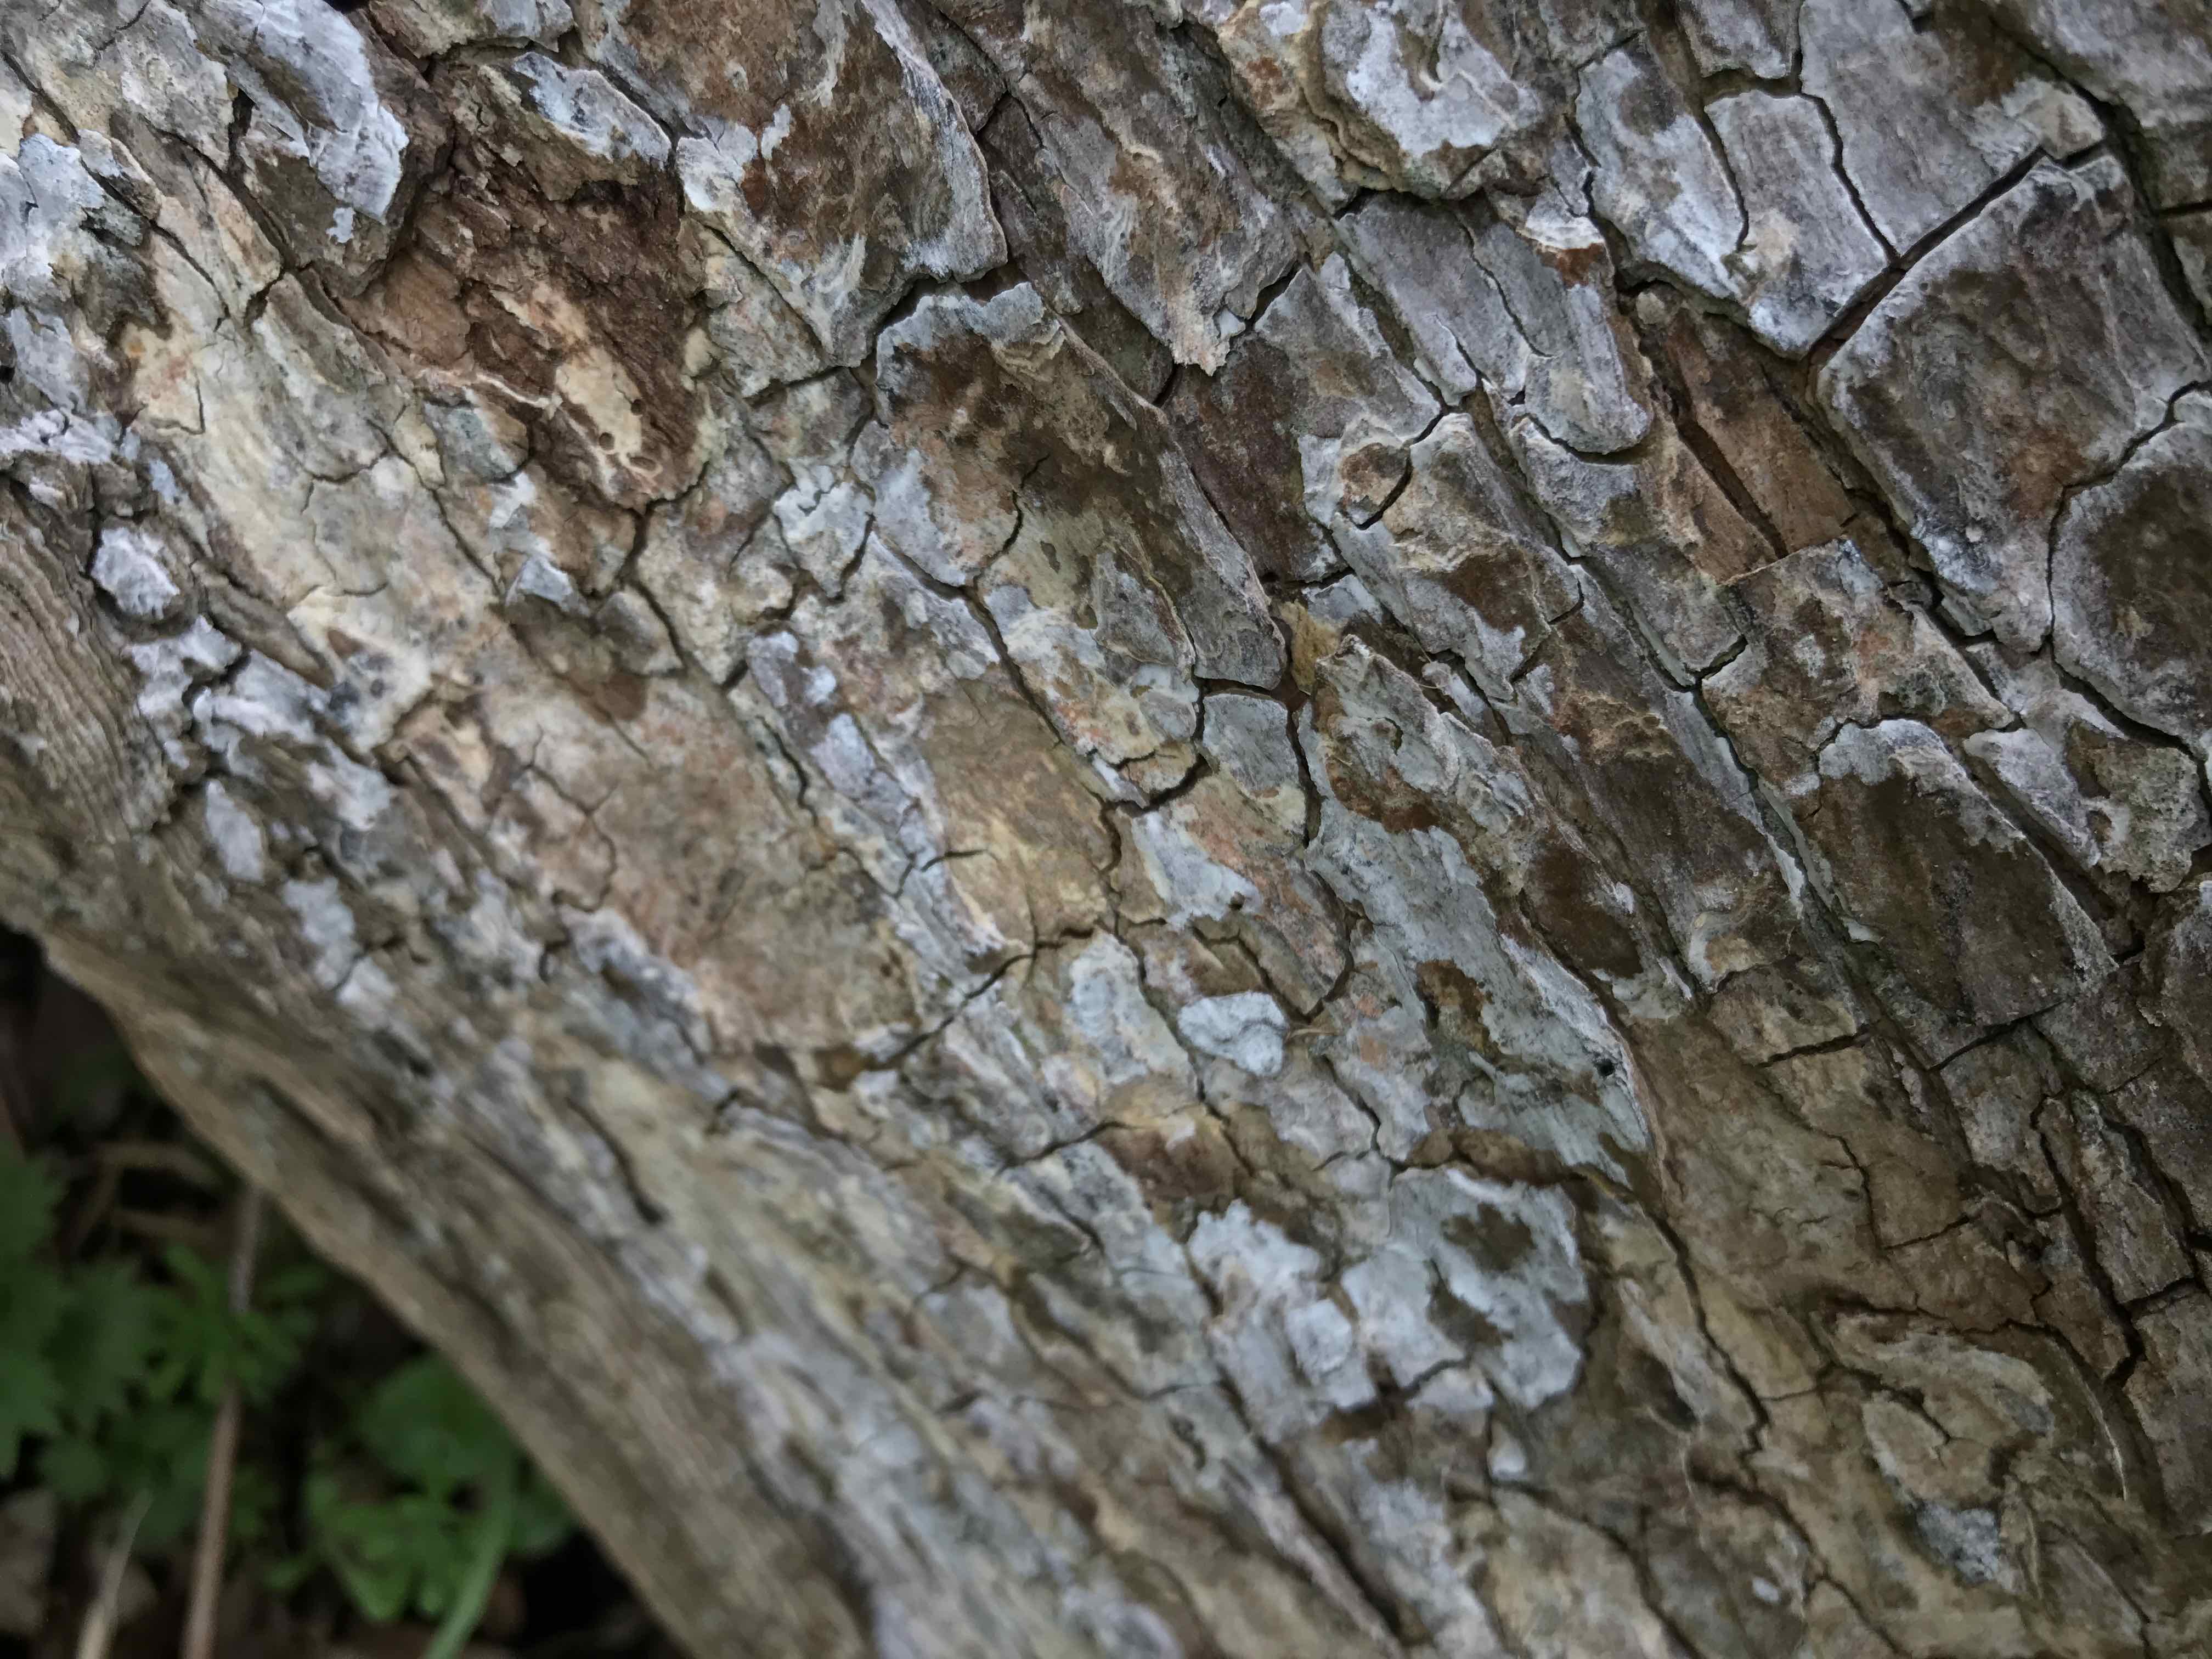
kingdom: Fungi
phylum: Basidiomycota
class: Agaricomycetes
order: Agaricales
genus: Dendrothele
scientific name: Dendrothele acerina
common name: navr-kalkplet
